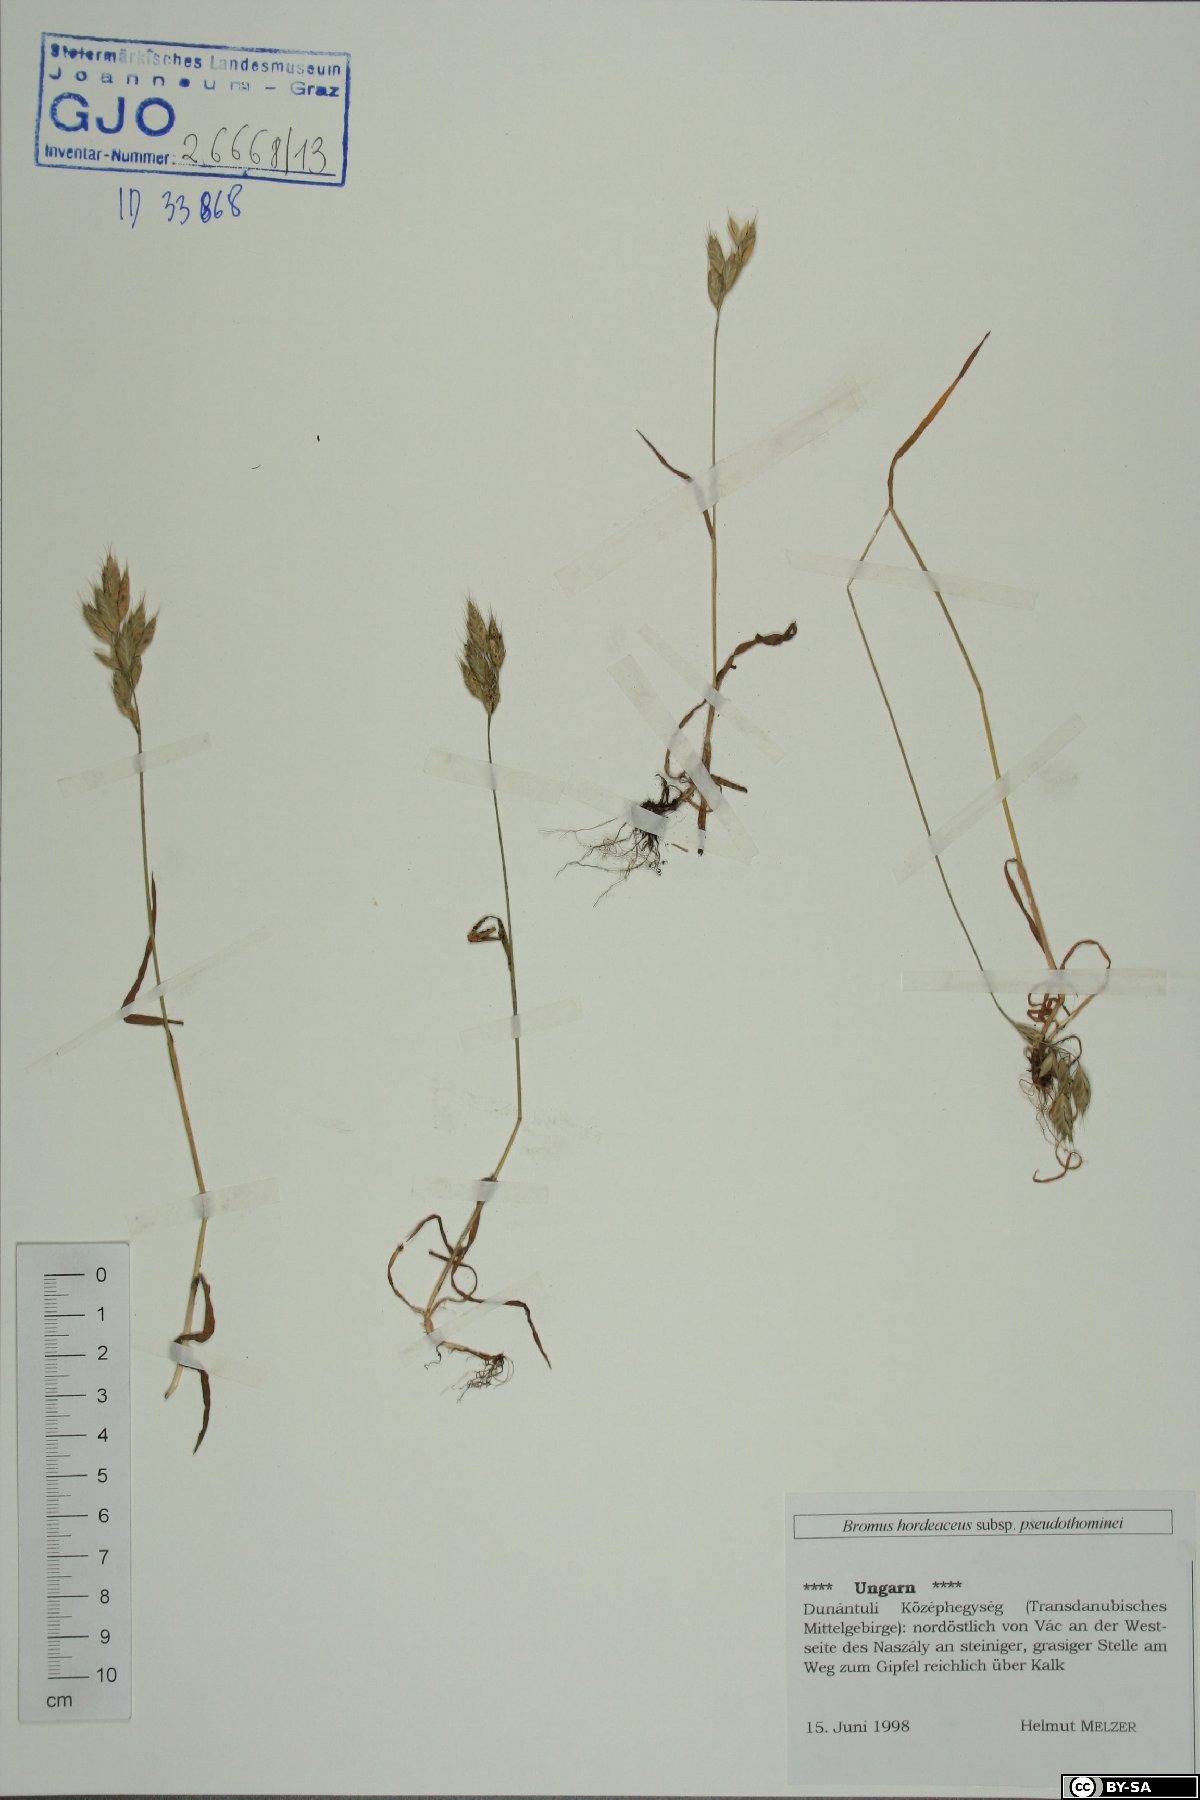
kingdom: Plantae
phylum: Tracheophyta
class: Liliopsida
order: Poales
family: Poaceae
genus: Bromus
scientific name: Bromus ferronii
